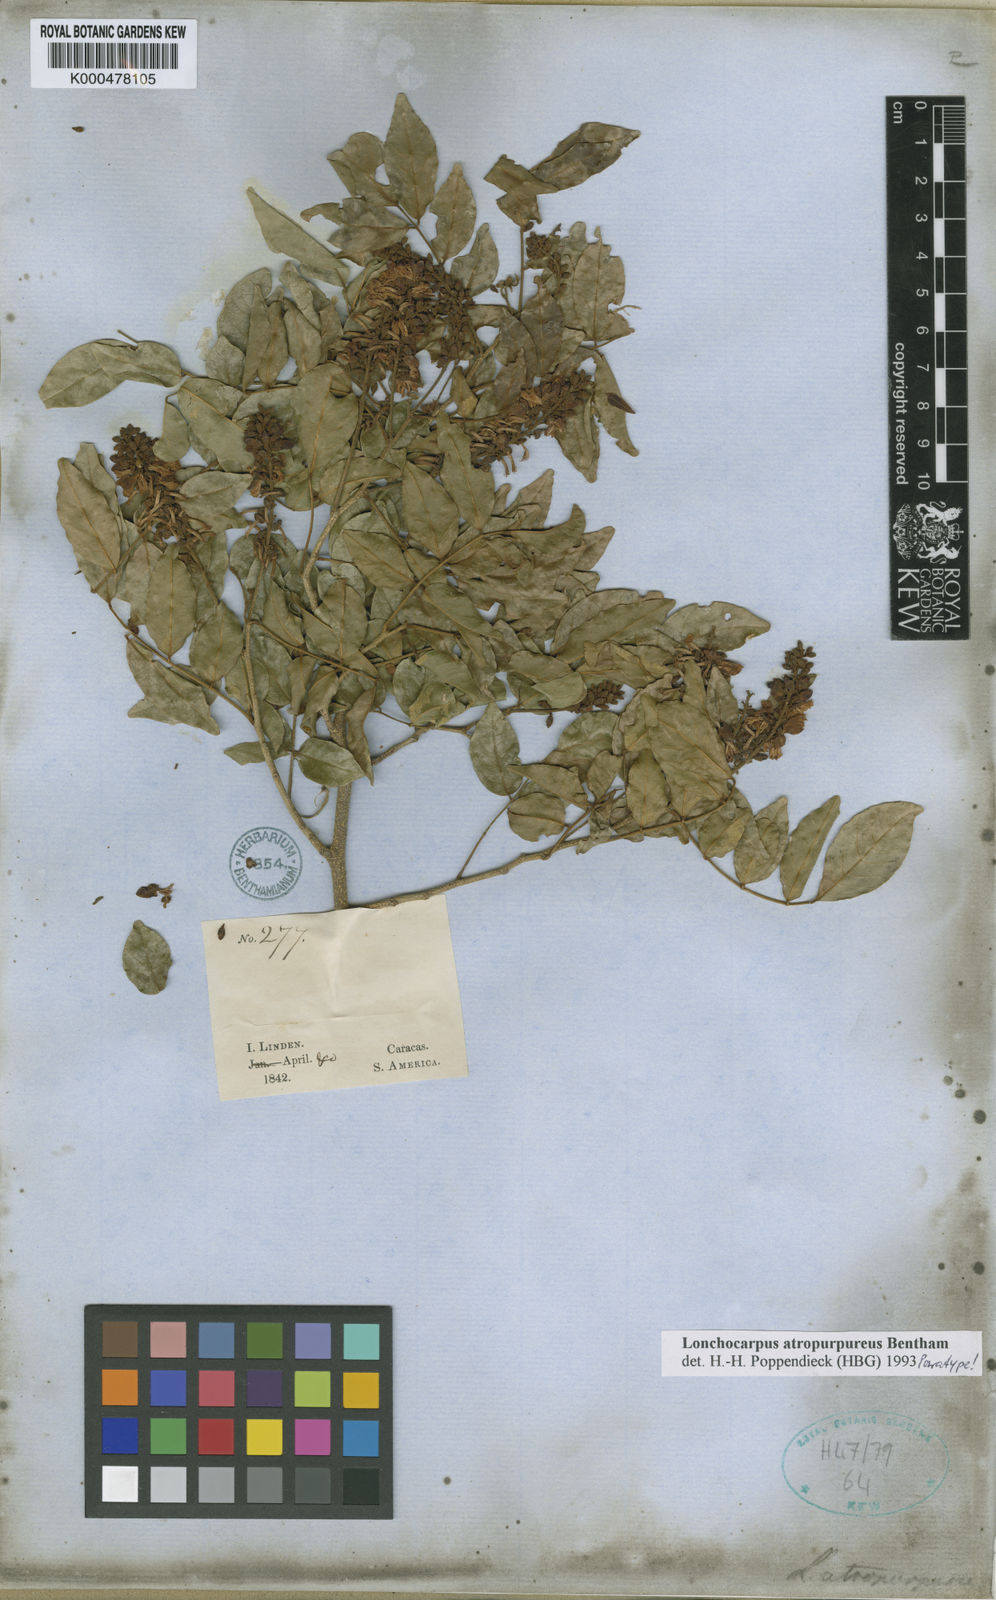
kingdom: Plantae
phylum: Tracheophyta
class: Magnoliopsida
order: Fabales
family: Fabaceae
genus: Lonchocarpus
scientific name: Lonchocarpus atropurpureus
